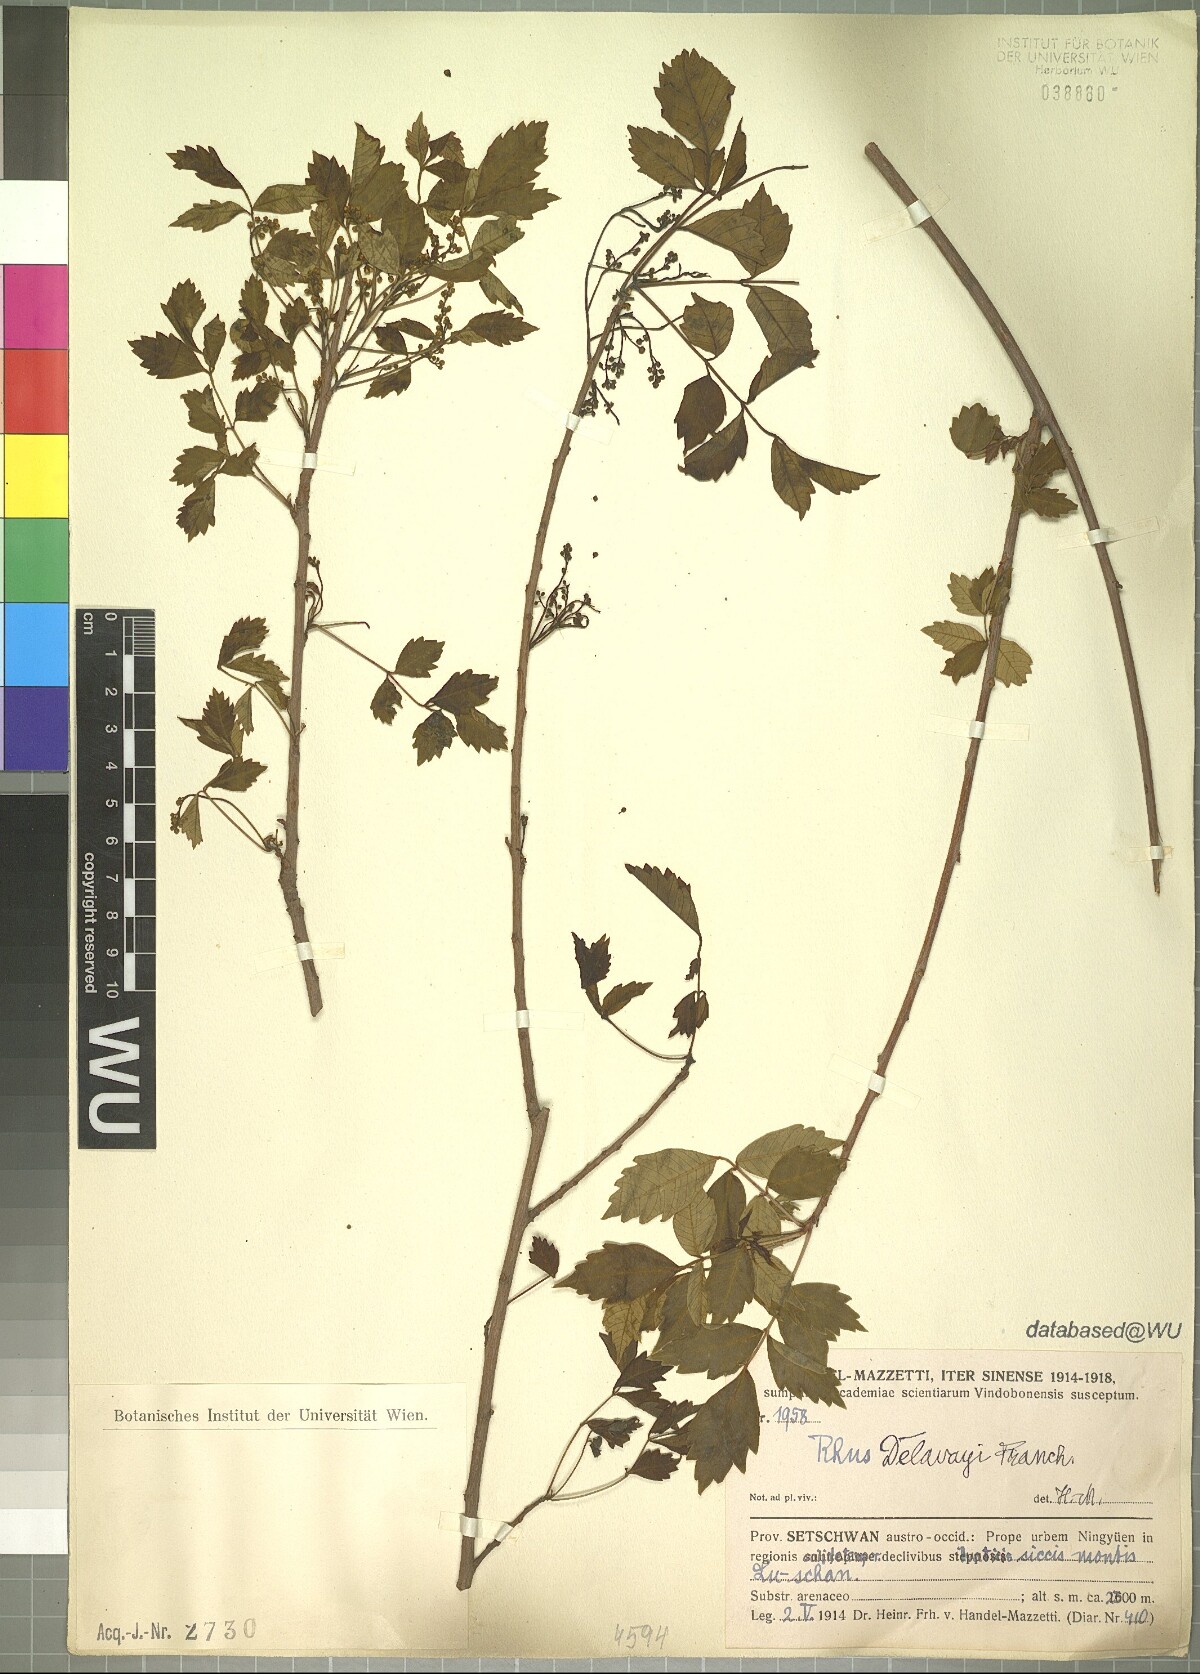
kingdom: Plantae
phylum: Tracheophyta
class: Magnoliopsida
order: Sapindales
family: Anacardiaceae
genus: Toxicodendron
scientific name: Toxicodendron delavayi
